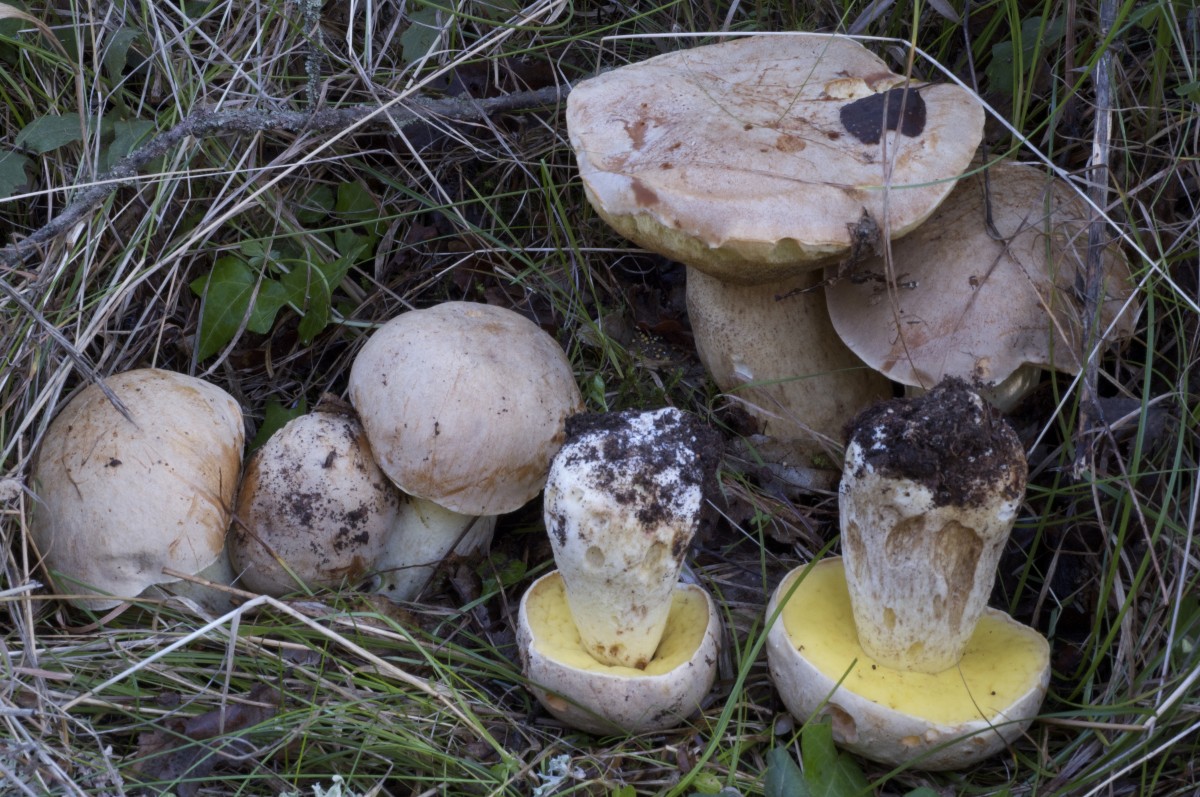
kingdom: Fungi
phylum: Basidiomycota
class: Agaricomycetes
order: Boletales
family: Boletaceae
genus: Hemileccinum
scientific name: Hemileccinum impolitum
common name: bleg rørhat
